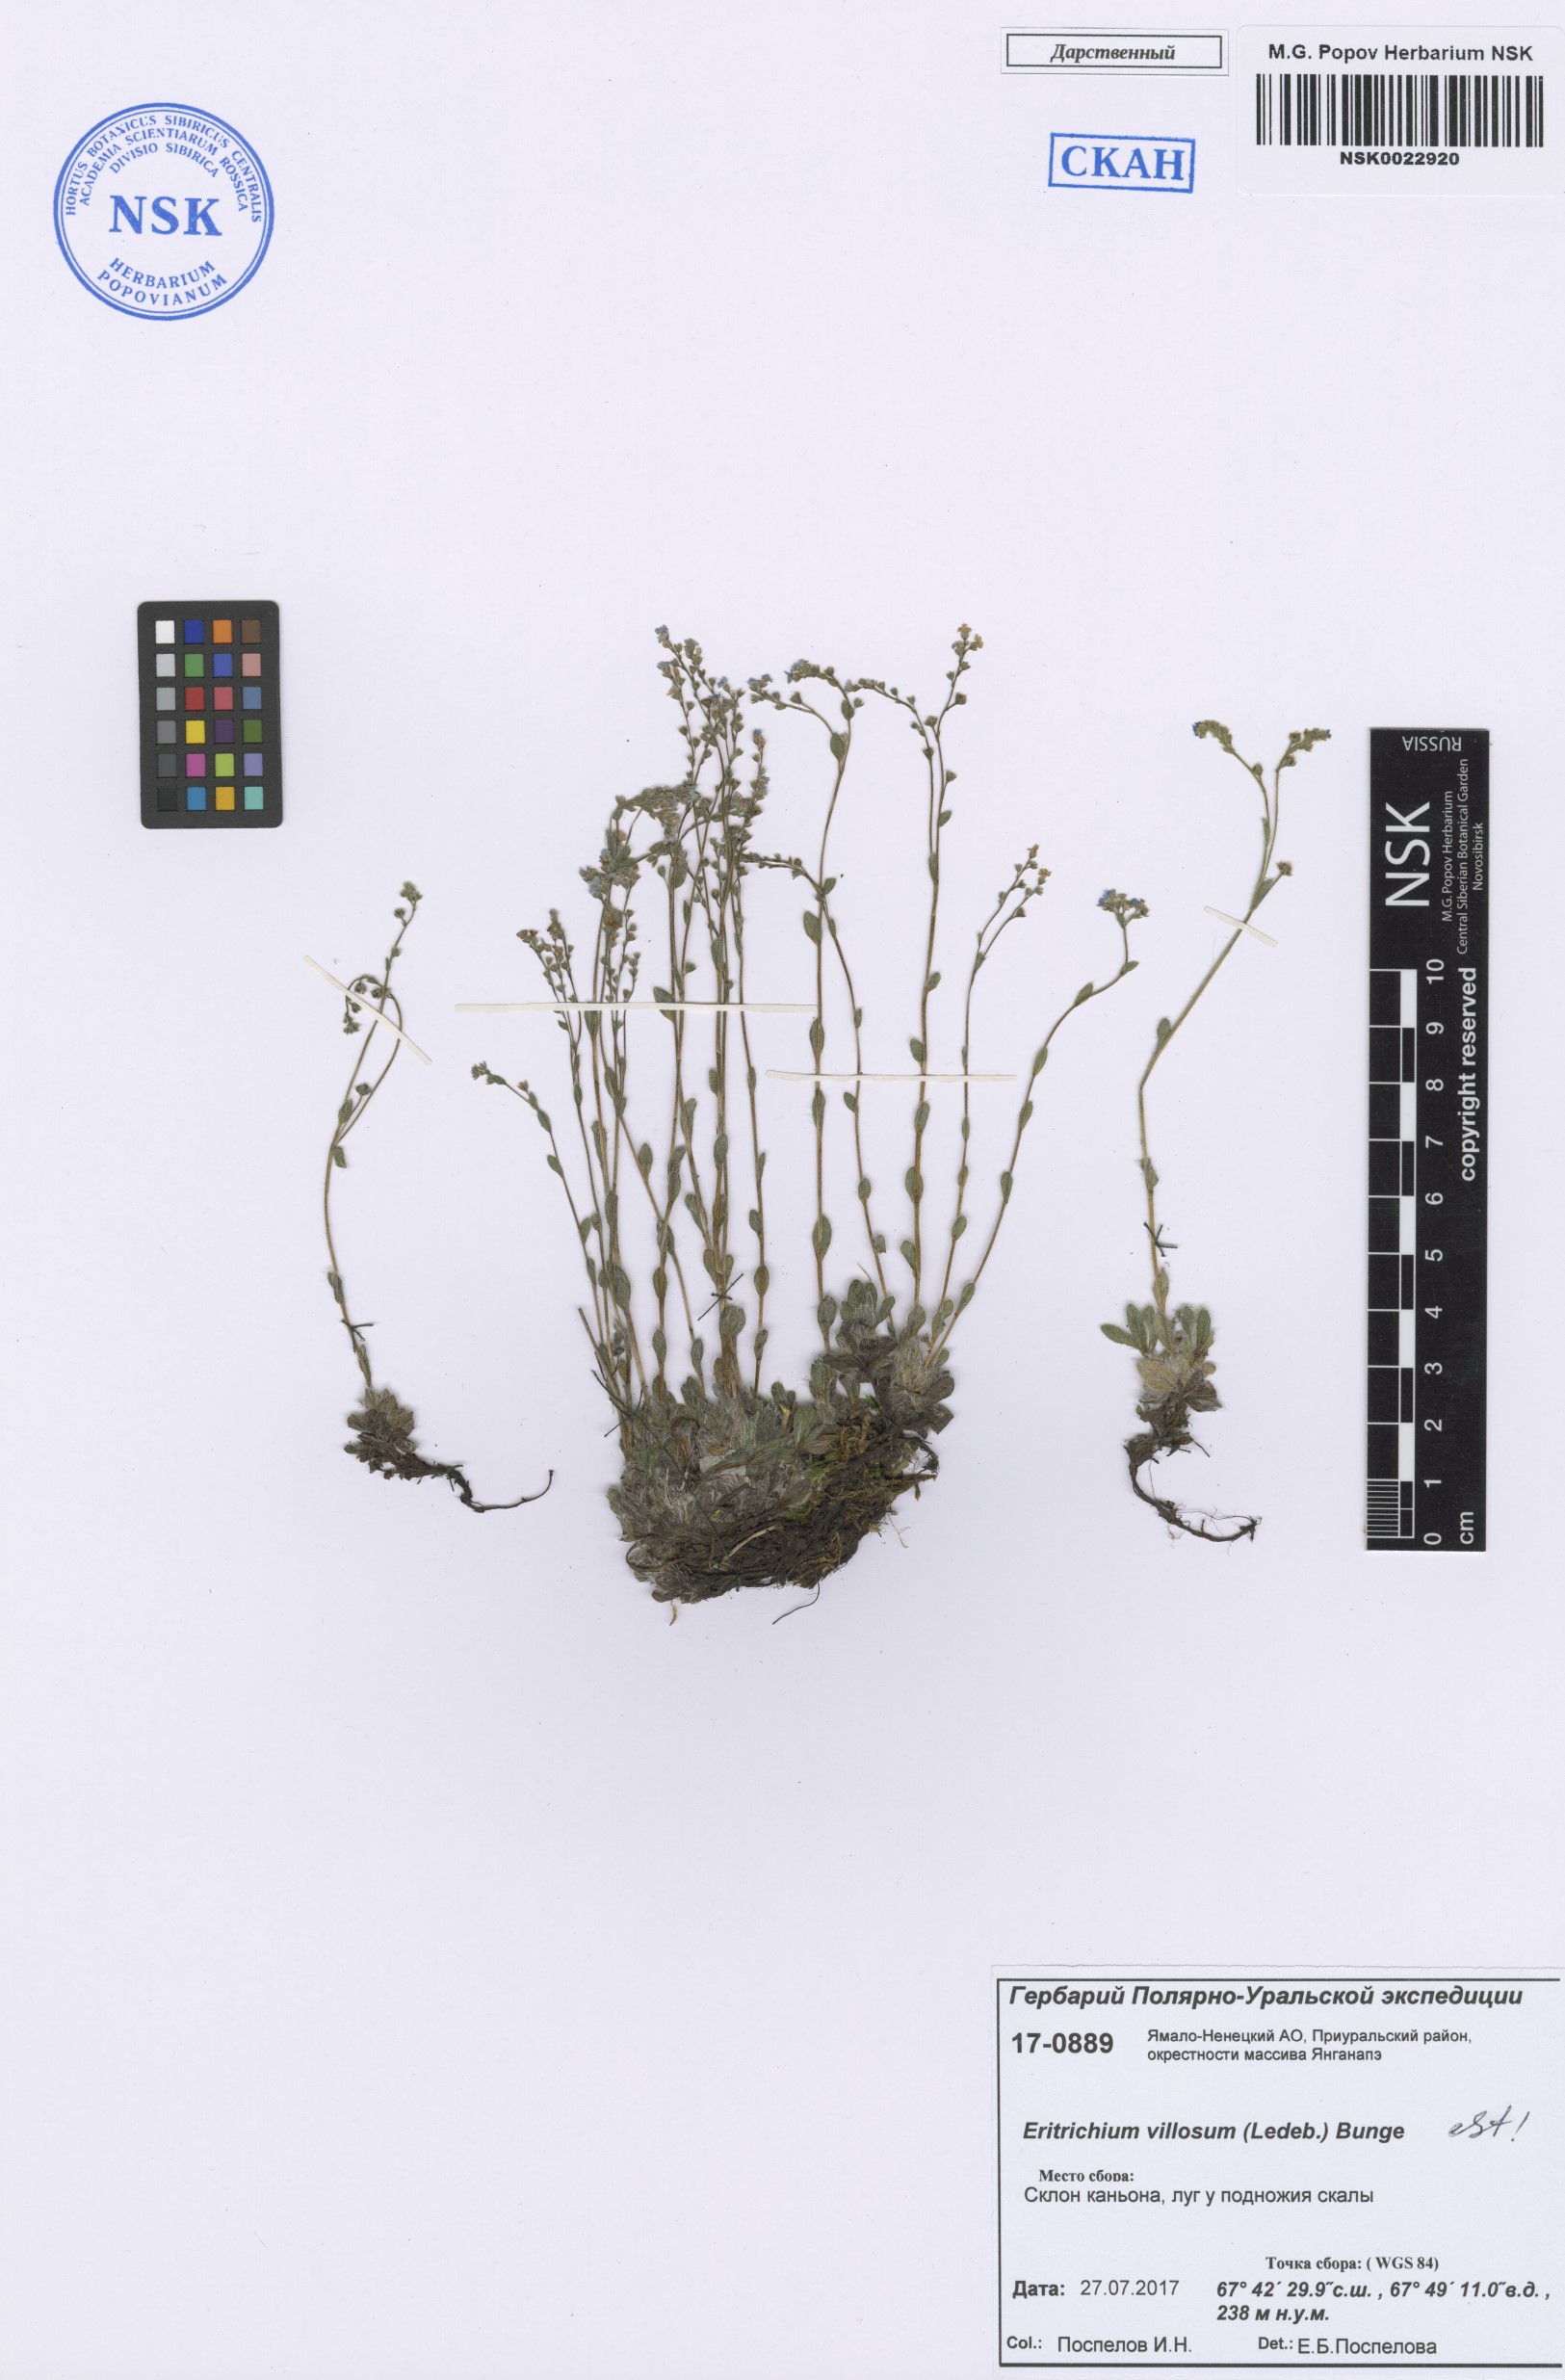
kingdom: Plantae
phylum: Tracheophyta
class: Magnoliopsida
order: Boraginales
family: Boraginaceae
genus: Eritrichium
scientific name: Eritrichium villosum
